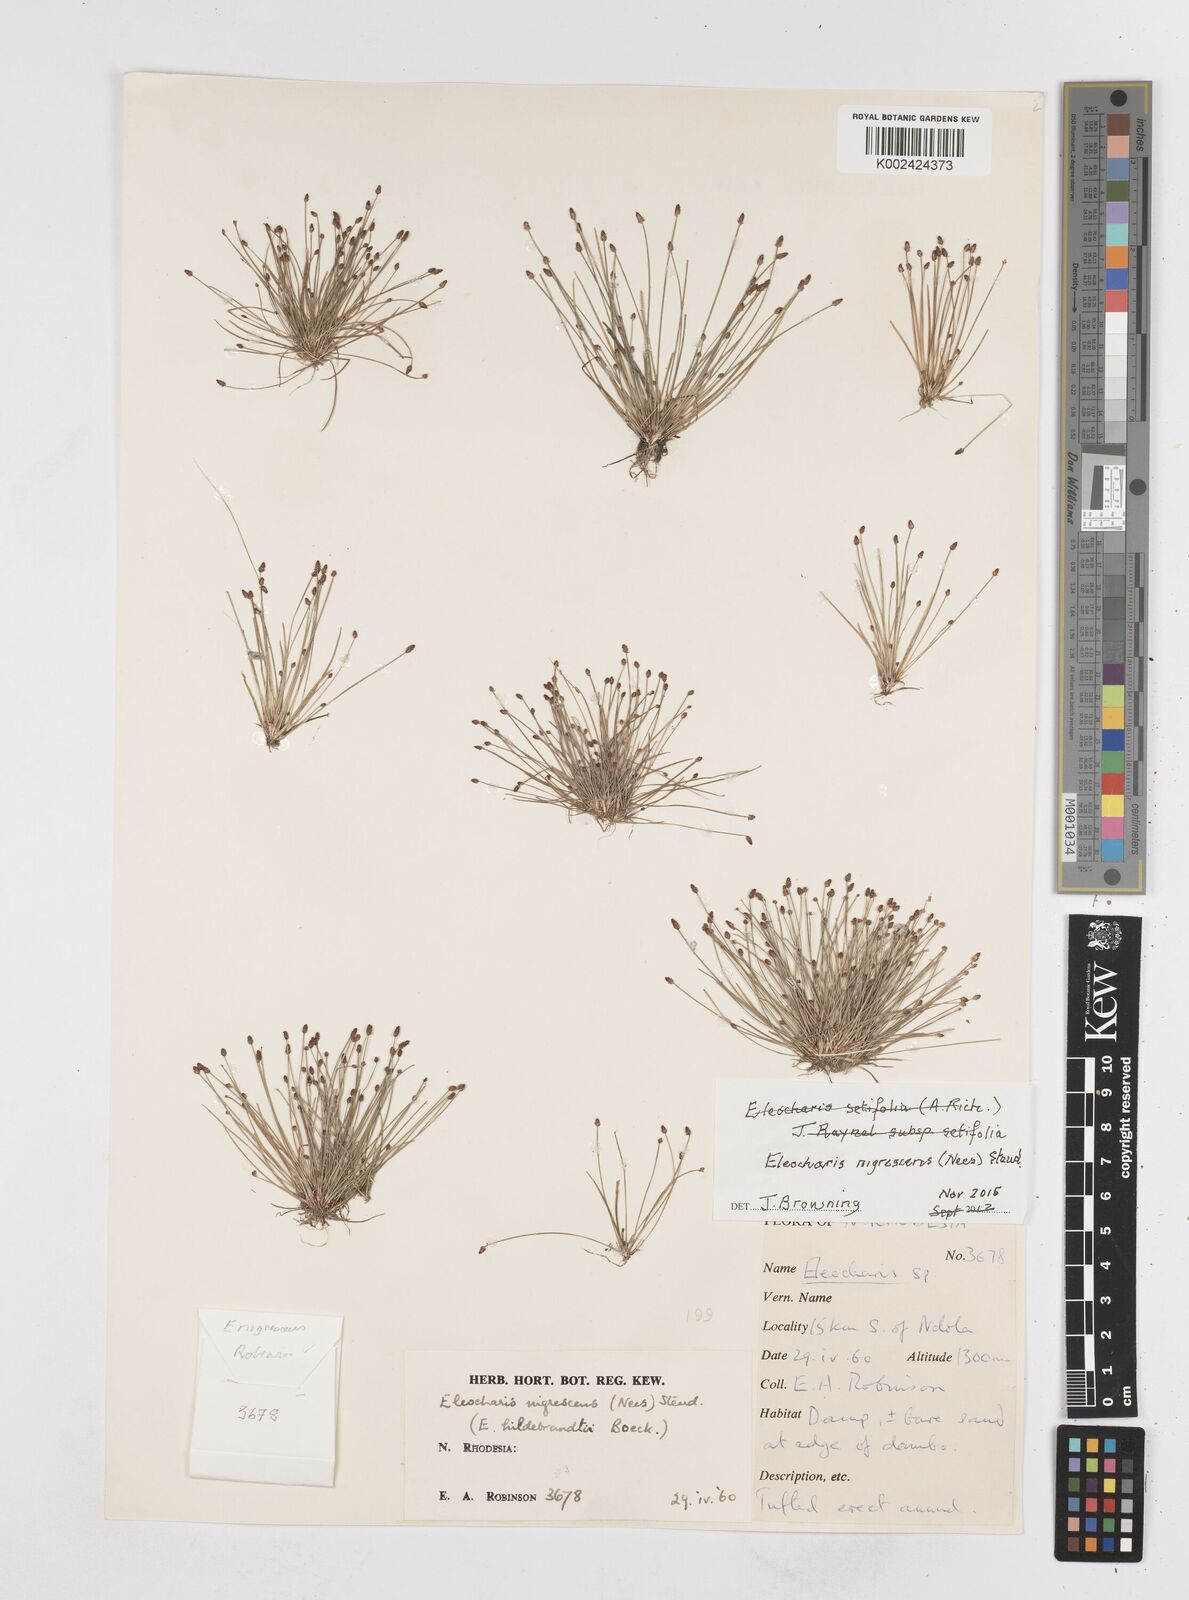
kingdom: Plantae
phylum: Tracheophyta
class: Liliopsida
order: Poales
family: Cyperaceae
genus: Eleocharis
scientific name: Eleocharis nigrescens
